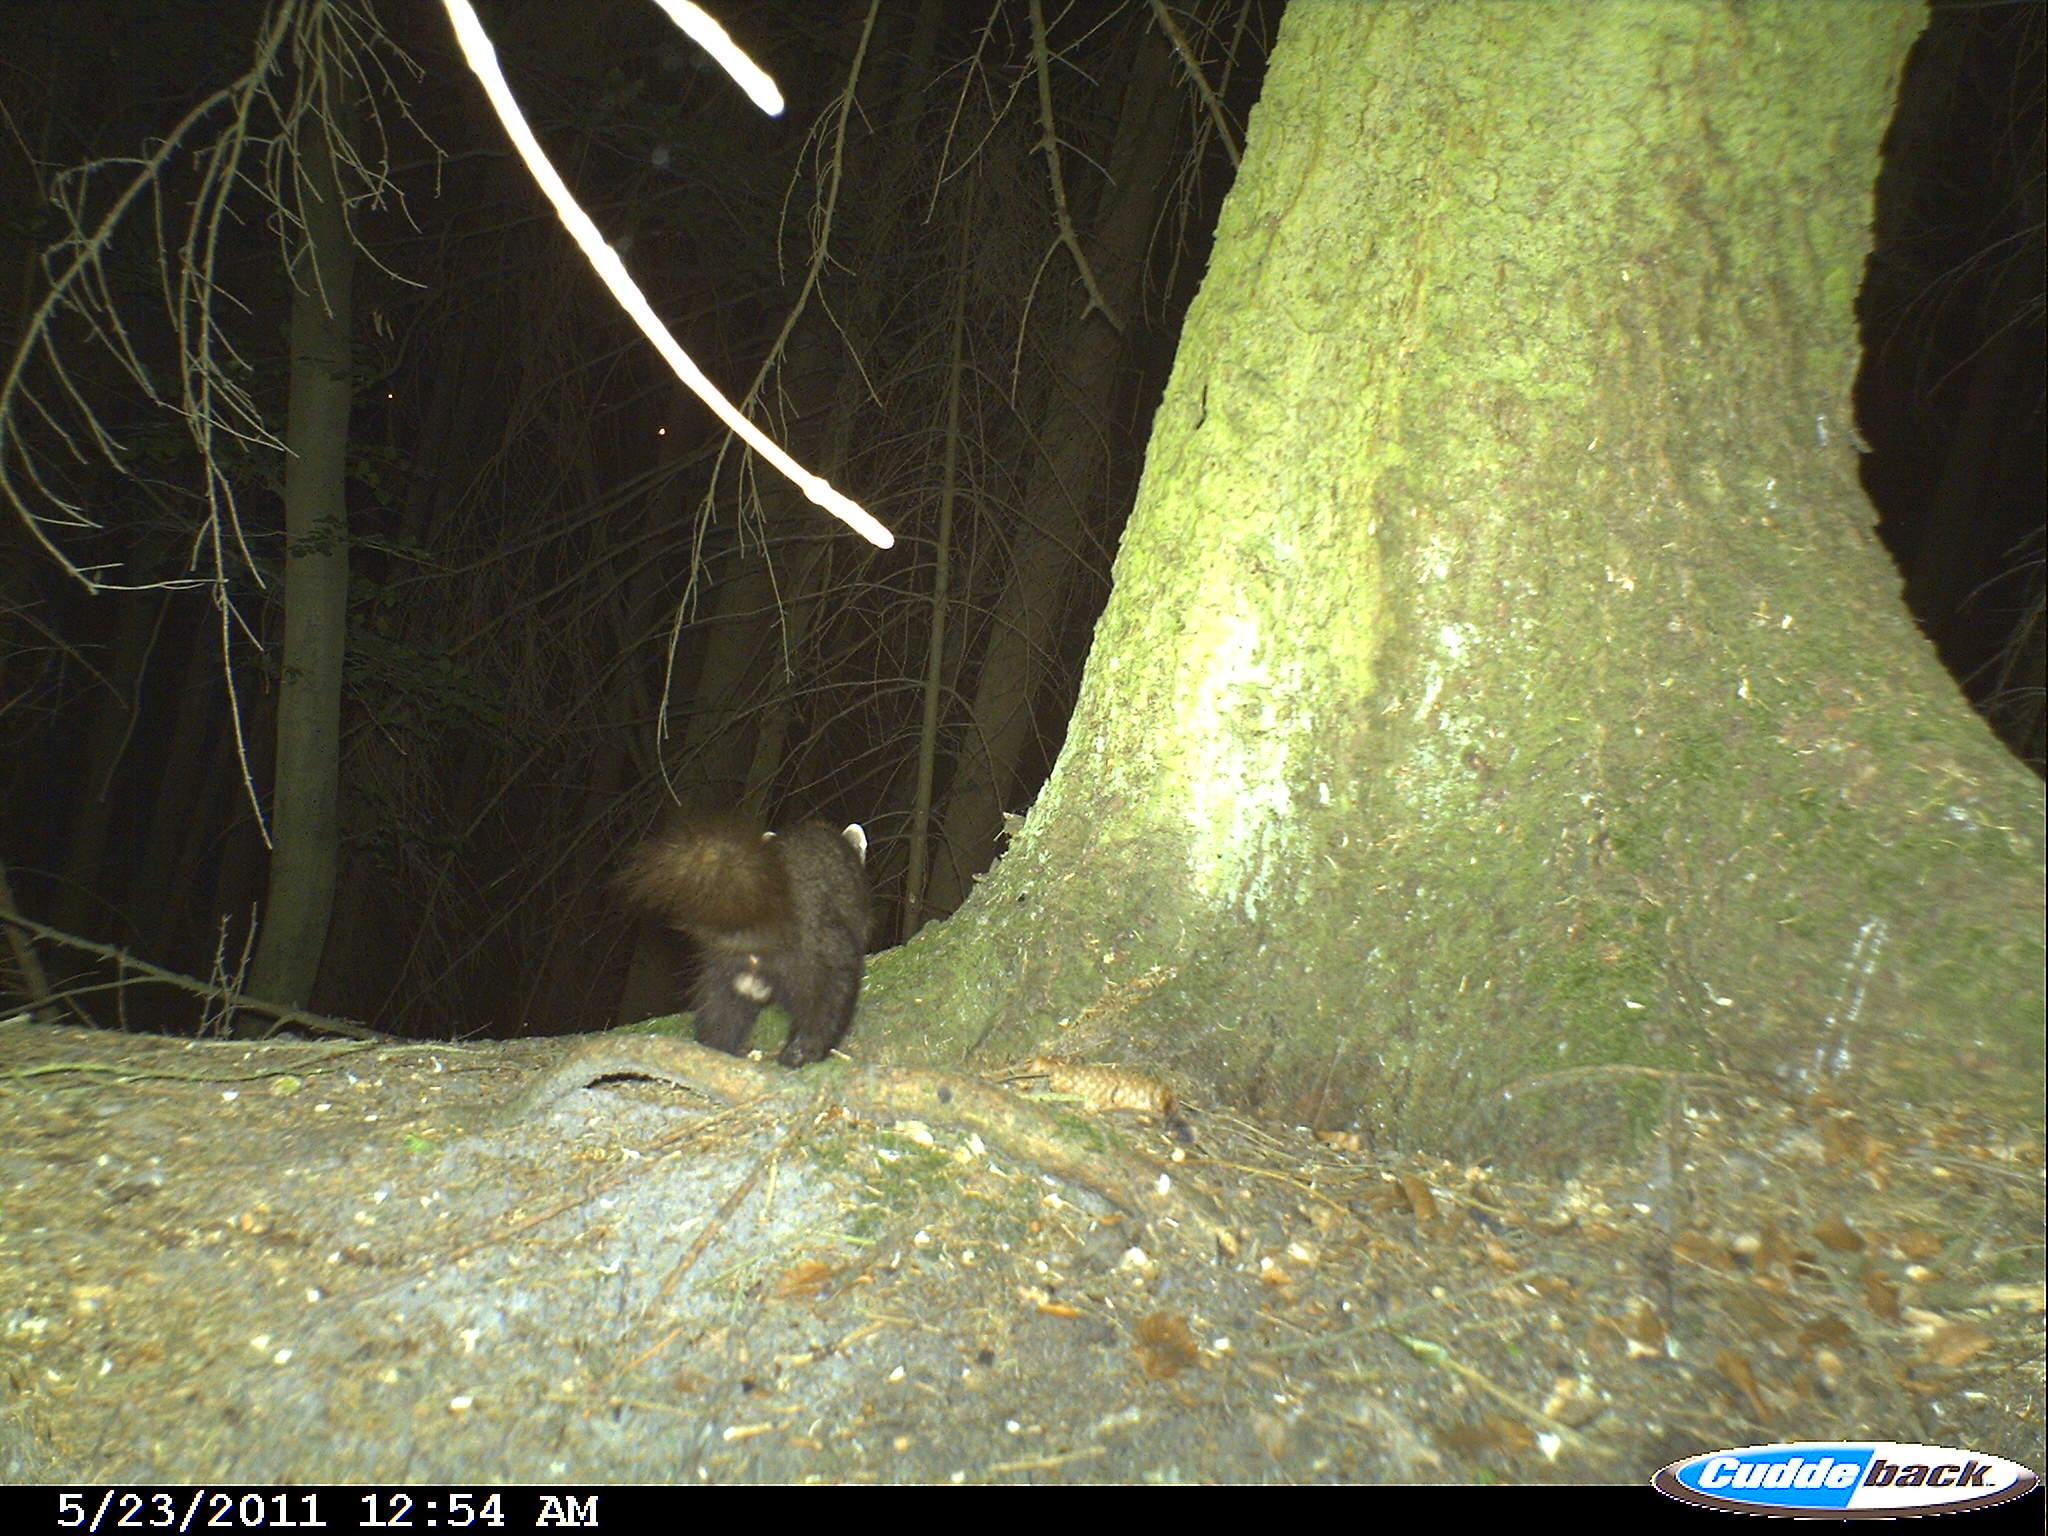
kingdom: Animalia
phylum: Chordata
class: Mammalia
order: Carnivora
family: Mustelidae
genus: Martes
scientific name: Martes martes
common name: European pine marten
